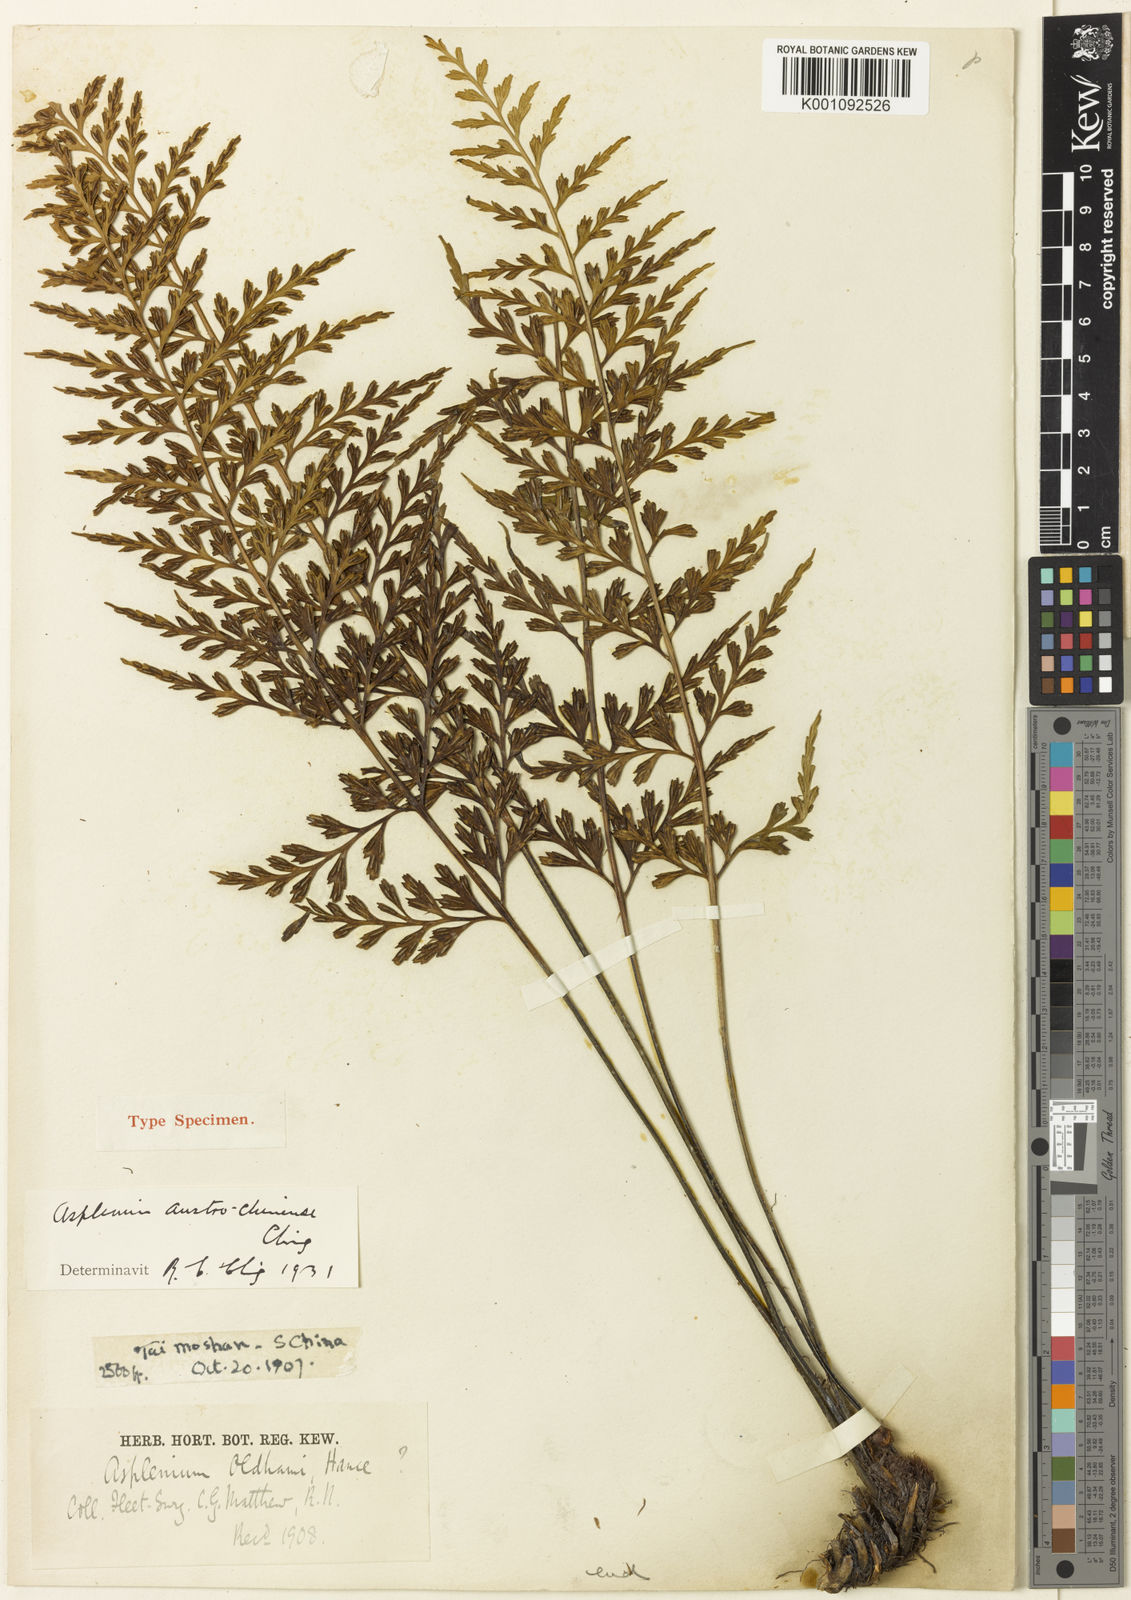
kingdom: Plantae
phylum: Tracheophyta
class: Polypodiopsida
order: Polypodiales
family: Aspleniaceae
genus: Asplenium
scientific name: Asplenium austrochinense
